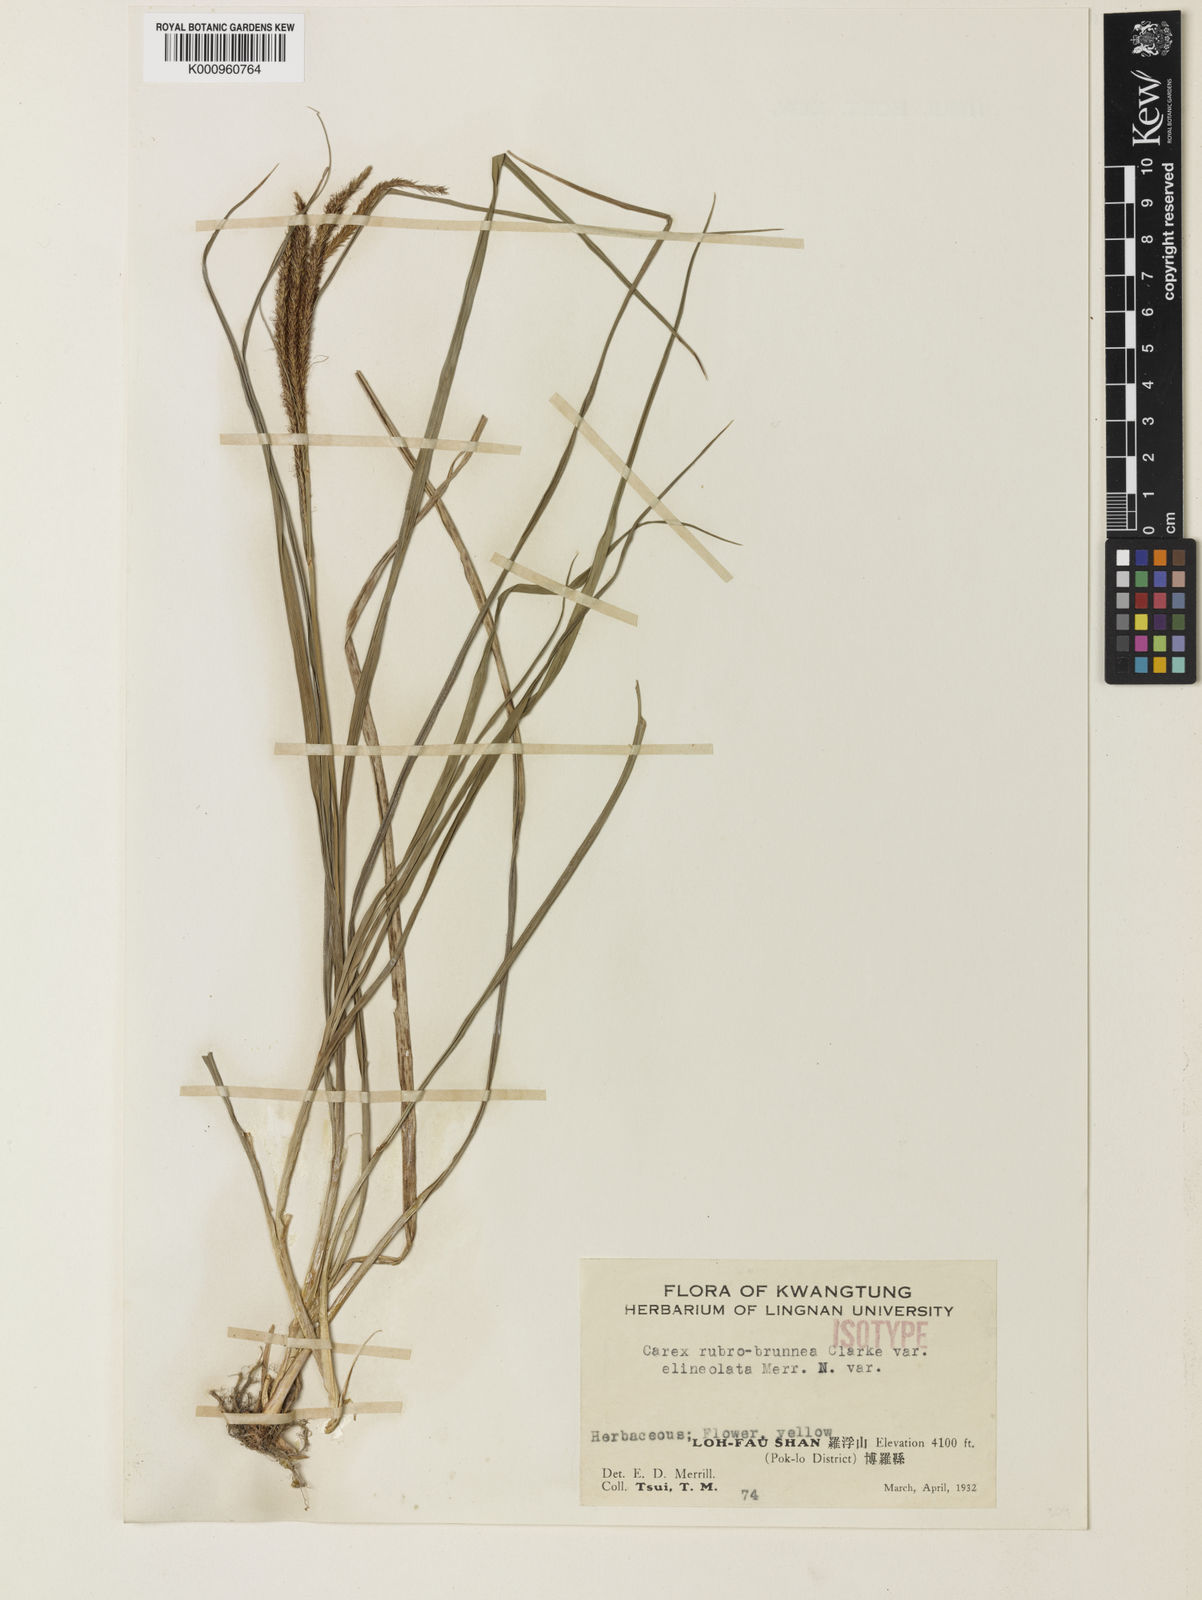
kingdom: Plantae
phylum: Tracheophyta
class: Liliopsida
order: Poales
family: Cyperaceae
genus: Carex
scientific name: Carex rubrobrunnea
